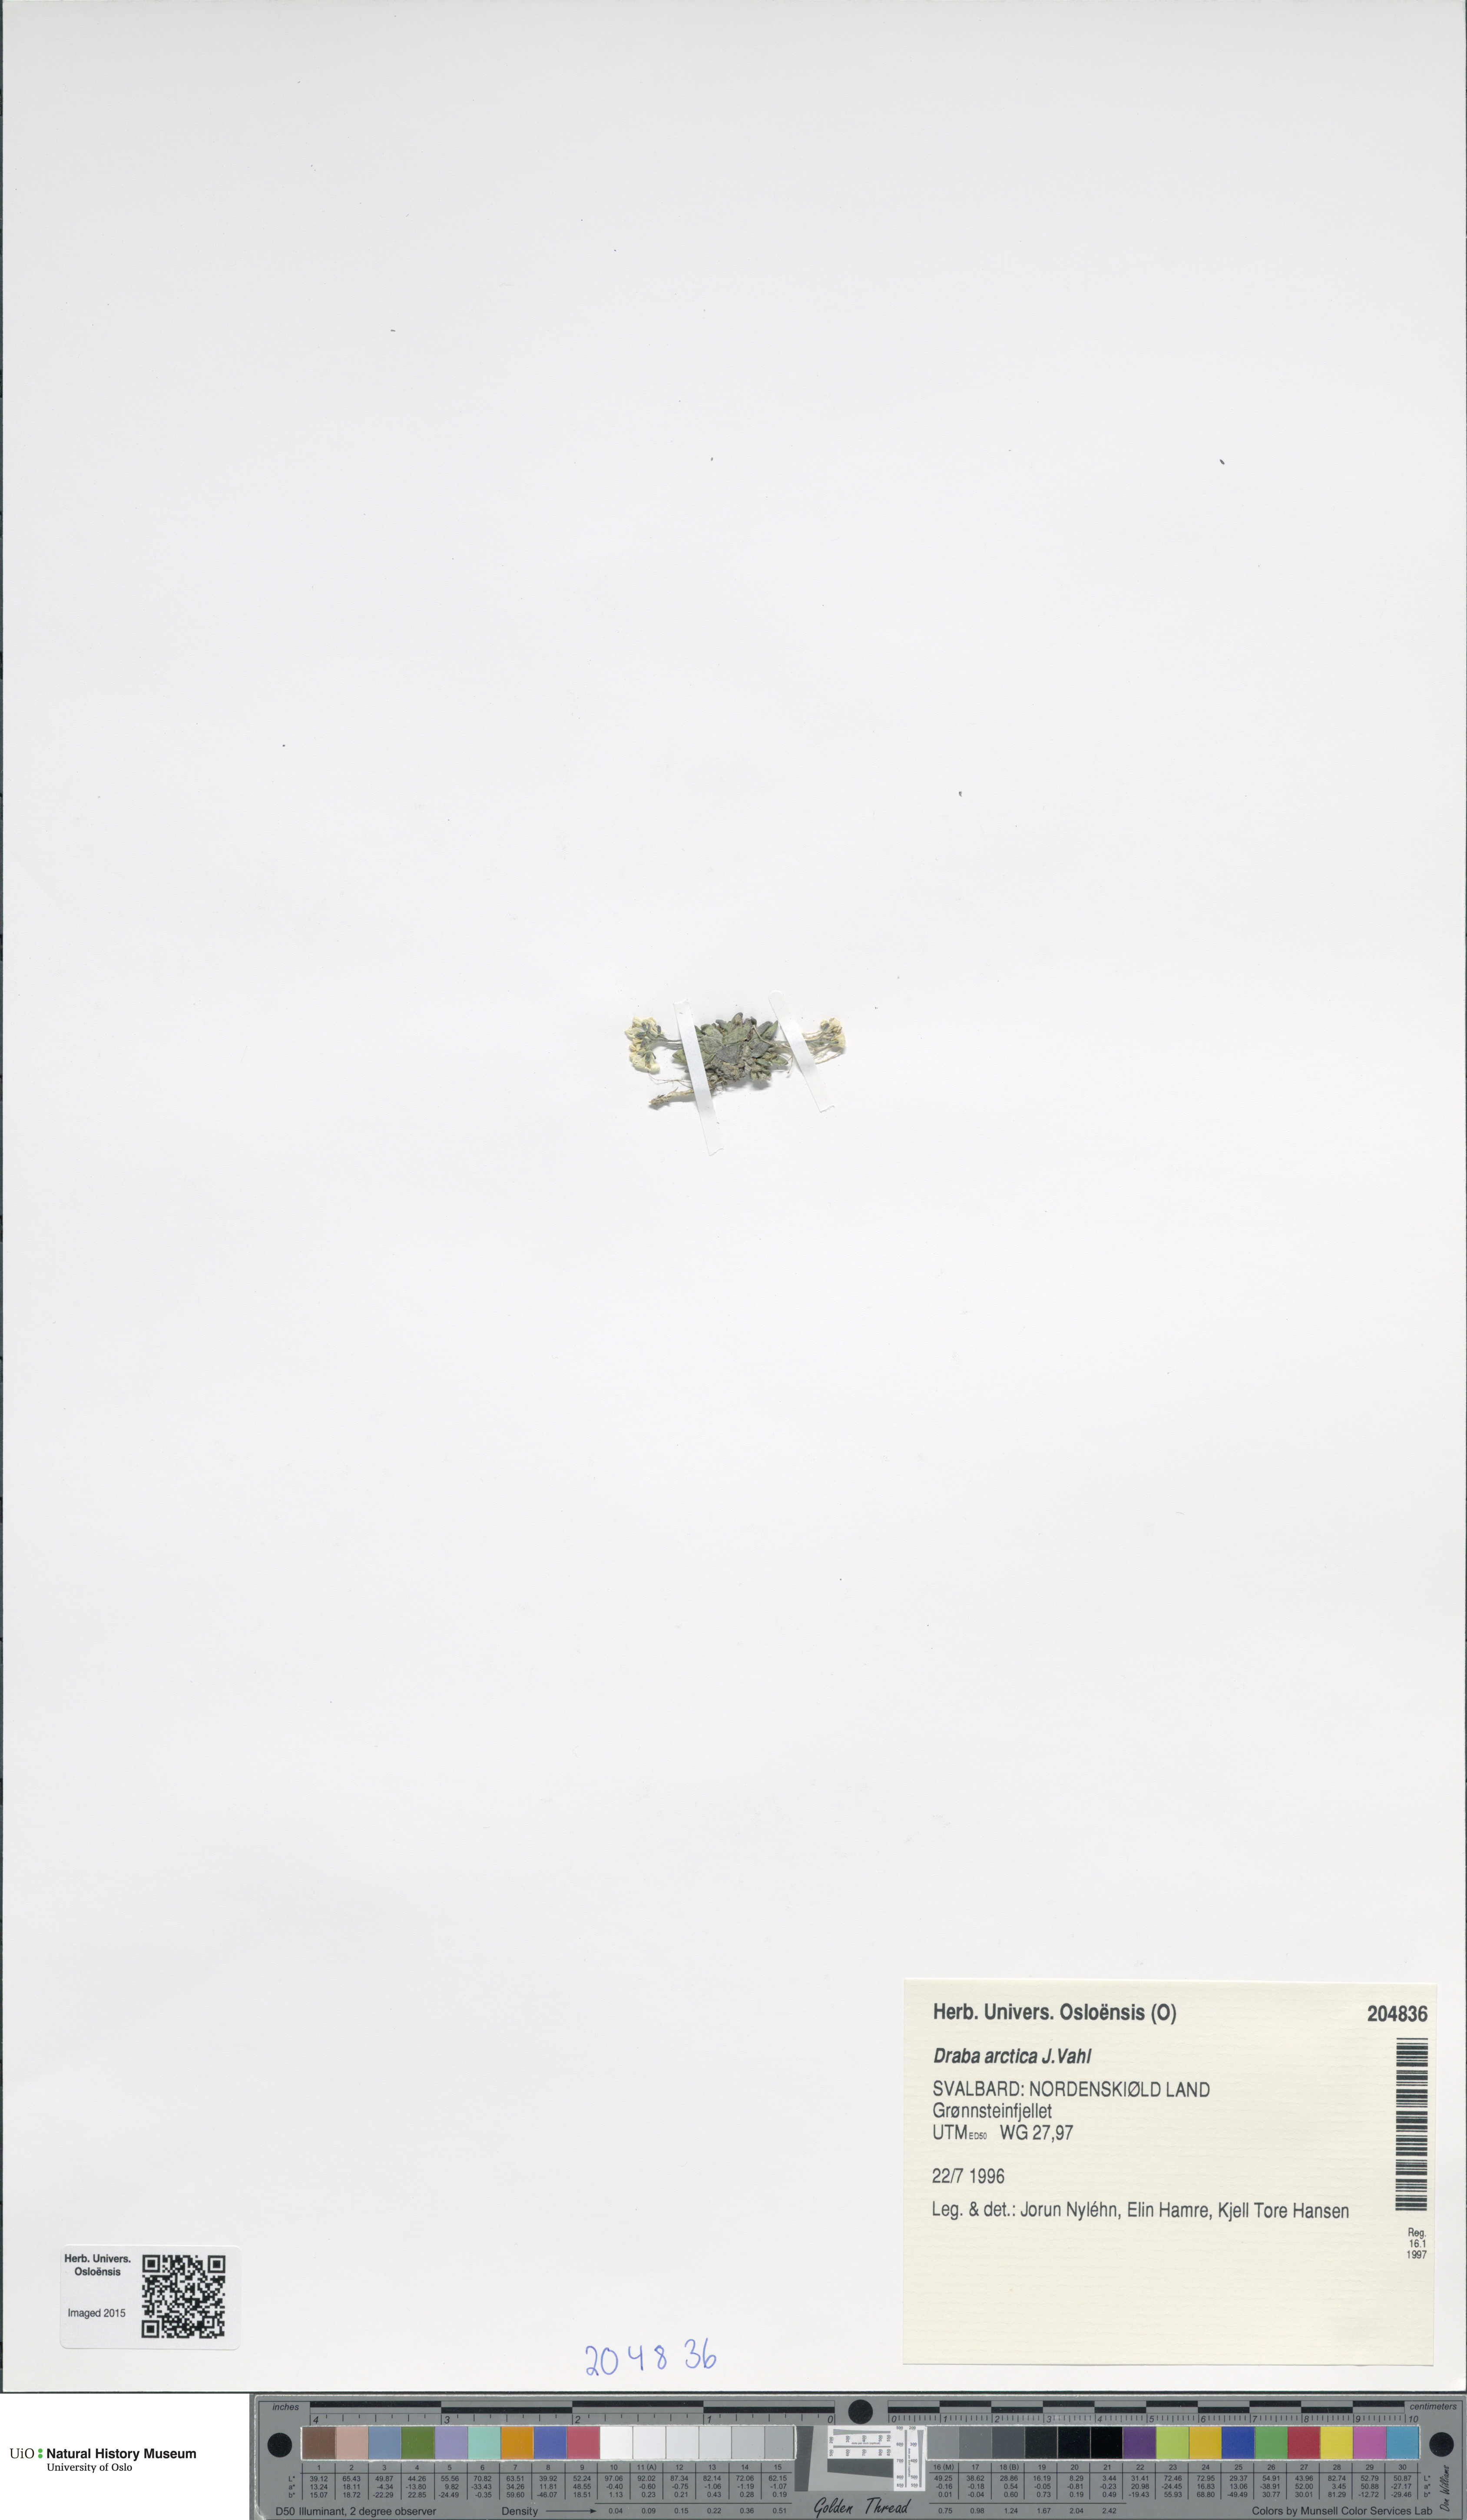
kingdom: Plantae
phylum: Tracheophyta
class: Magnoliopsida
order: Brassicales
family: Brassicaceae
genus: Draba
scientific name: Draba arctica
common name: Arctic draba
